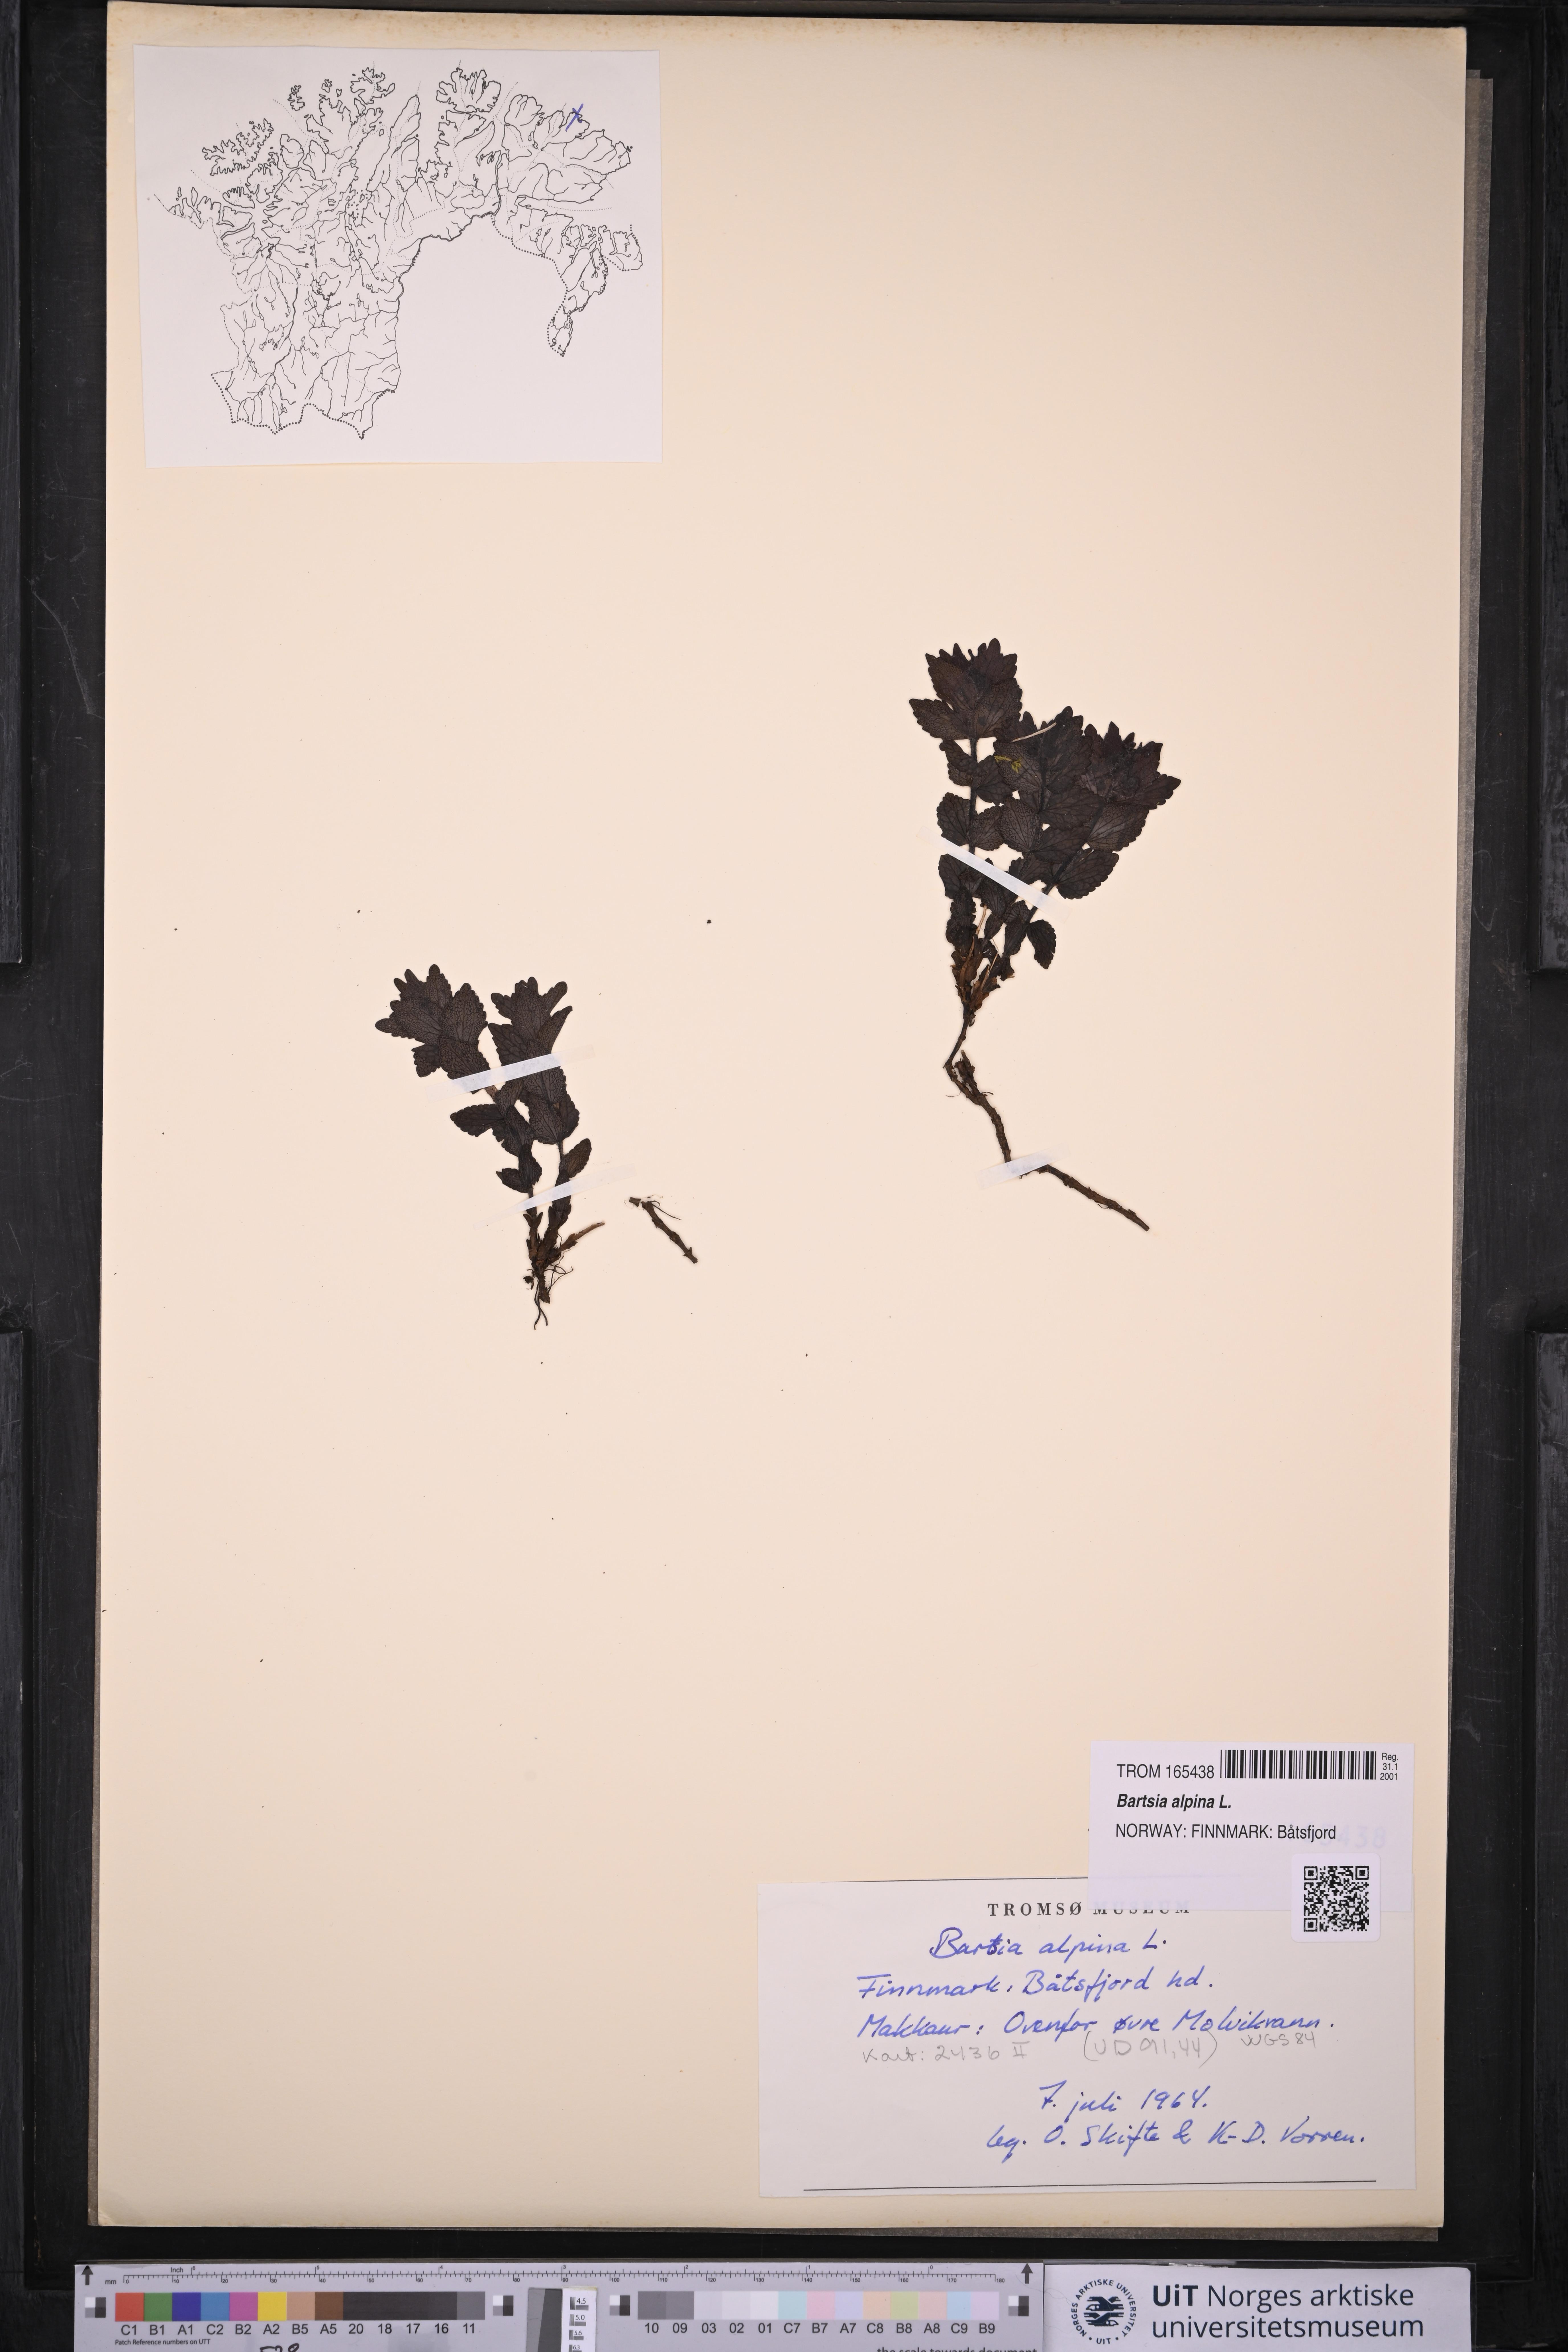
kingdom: Plantae
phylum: Tracheophyta
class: Magnoliopsida
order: Lamiales
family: Orobanchaceae
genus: Bartsia
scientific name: Bartsia alpina
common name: Alpine bartsia
